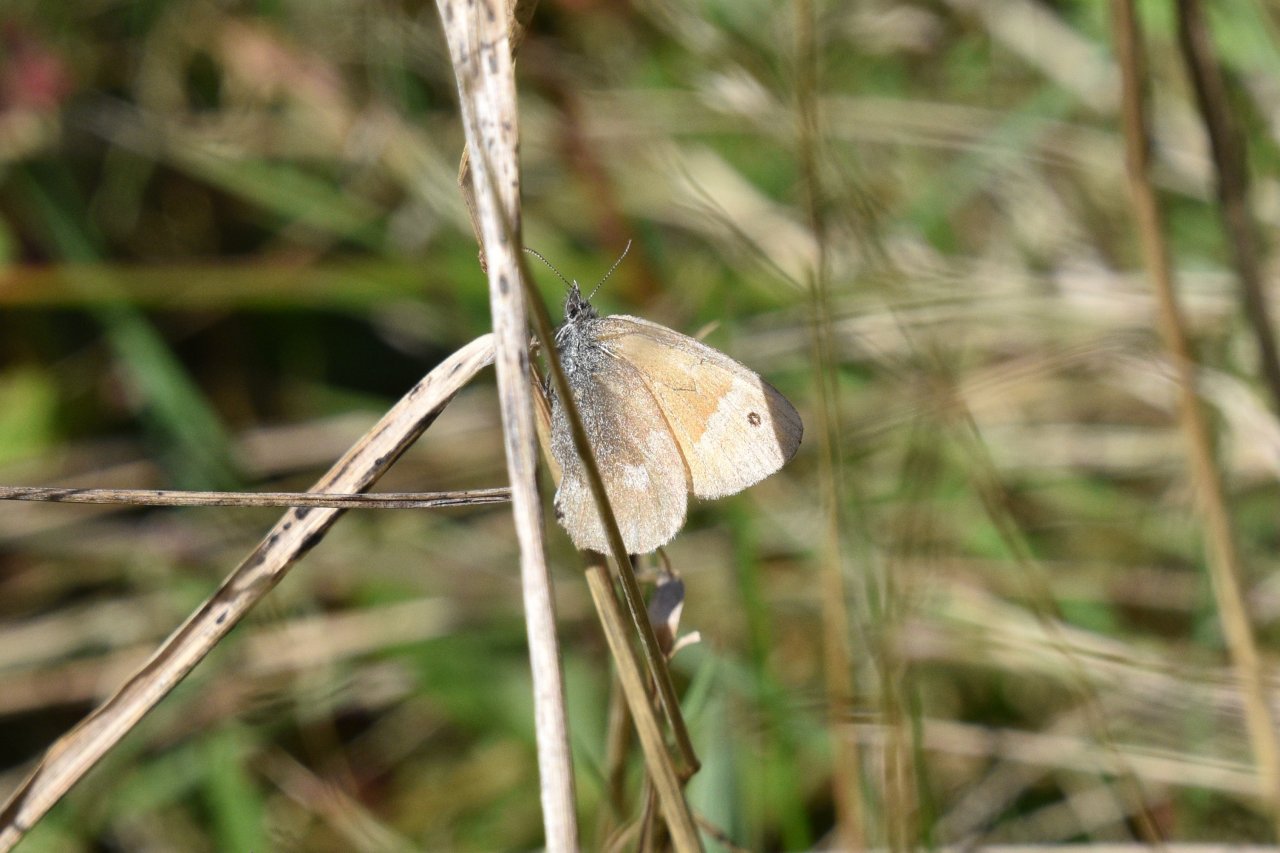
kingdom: Animalia
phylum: Arthropoda
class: Insecta
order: Lepidoptera
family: Nymphalidae
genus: Coenonympha
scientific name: Coenonympha tullia
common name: Large Heath
